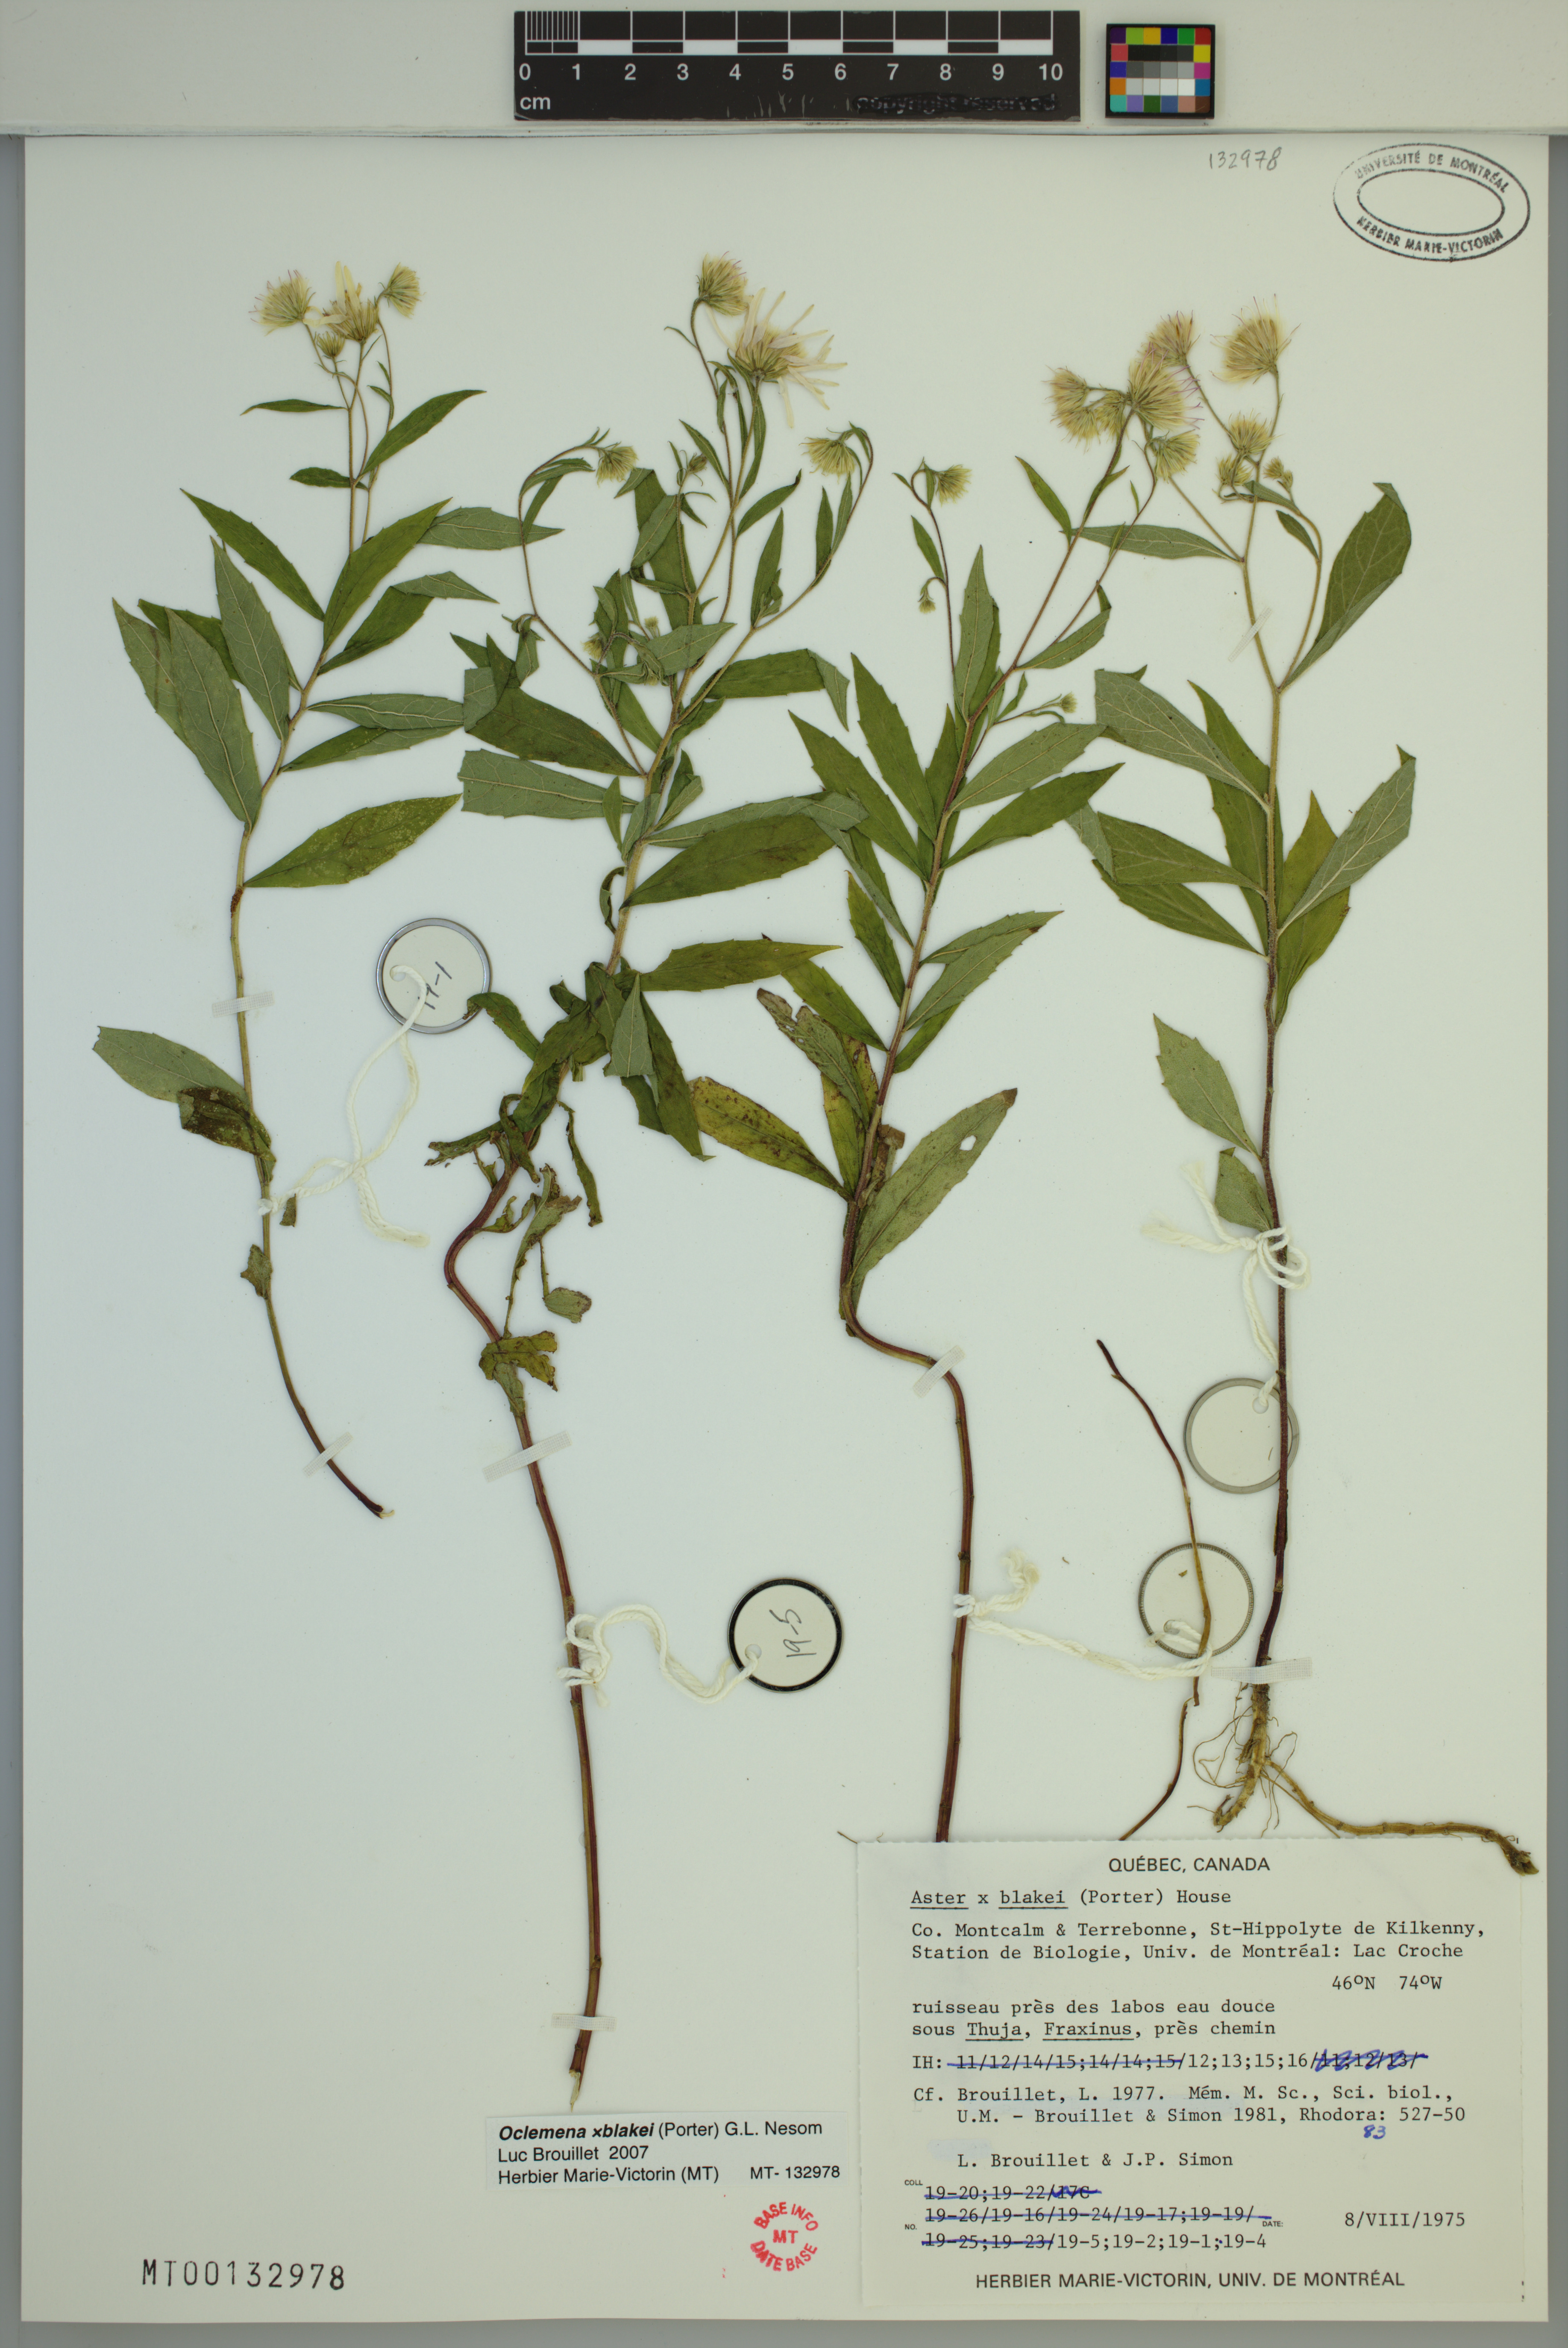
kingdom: Plantae
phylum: Tracheophyta
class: Magnoliopsida
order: Asterales
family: Asteraceae
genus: Oclemena
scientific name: Oclemena blakei
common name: Blake's aster
